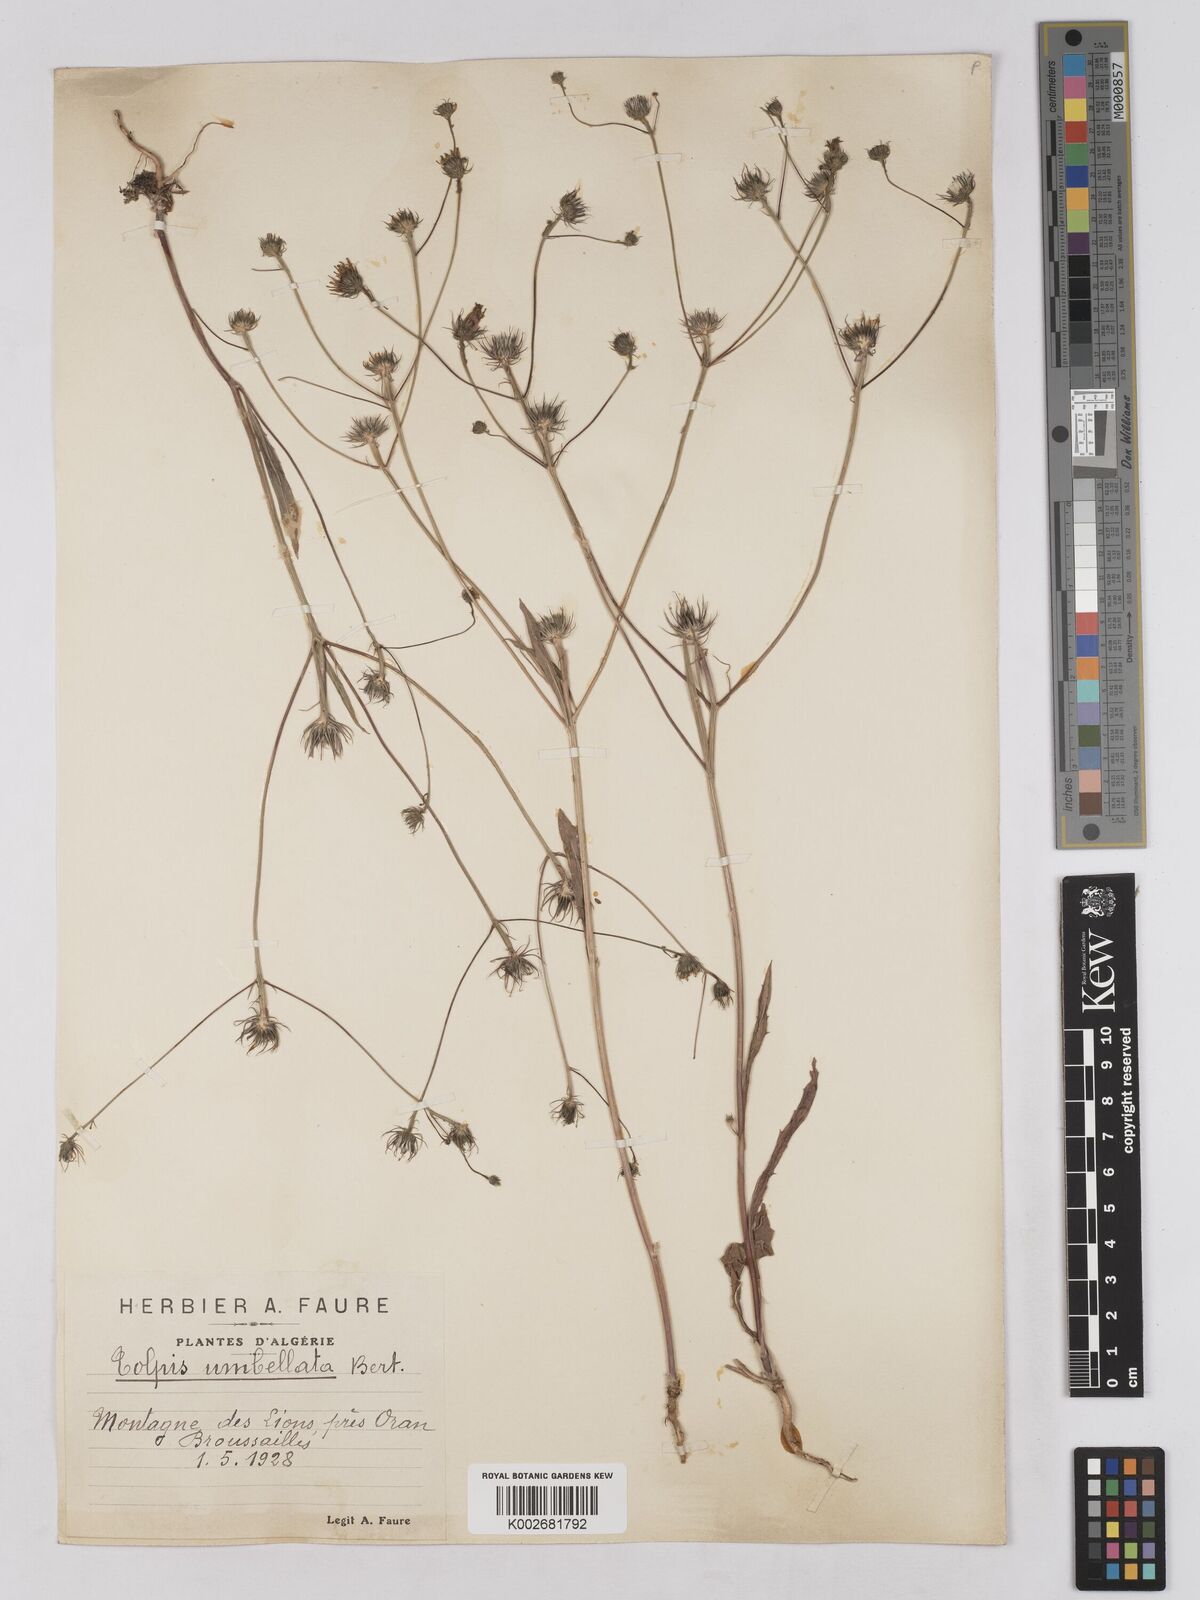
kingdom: Plantae
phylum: Tracheophyta
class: Magnoliopsida
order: Asterales
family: Asteraceae
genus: Tolpis
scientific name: Tolpis umbellata
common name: Yellow hawkweed
